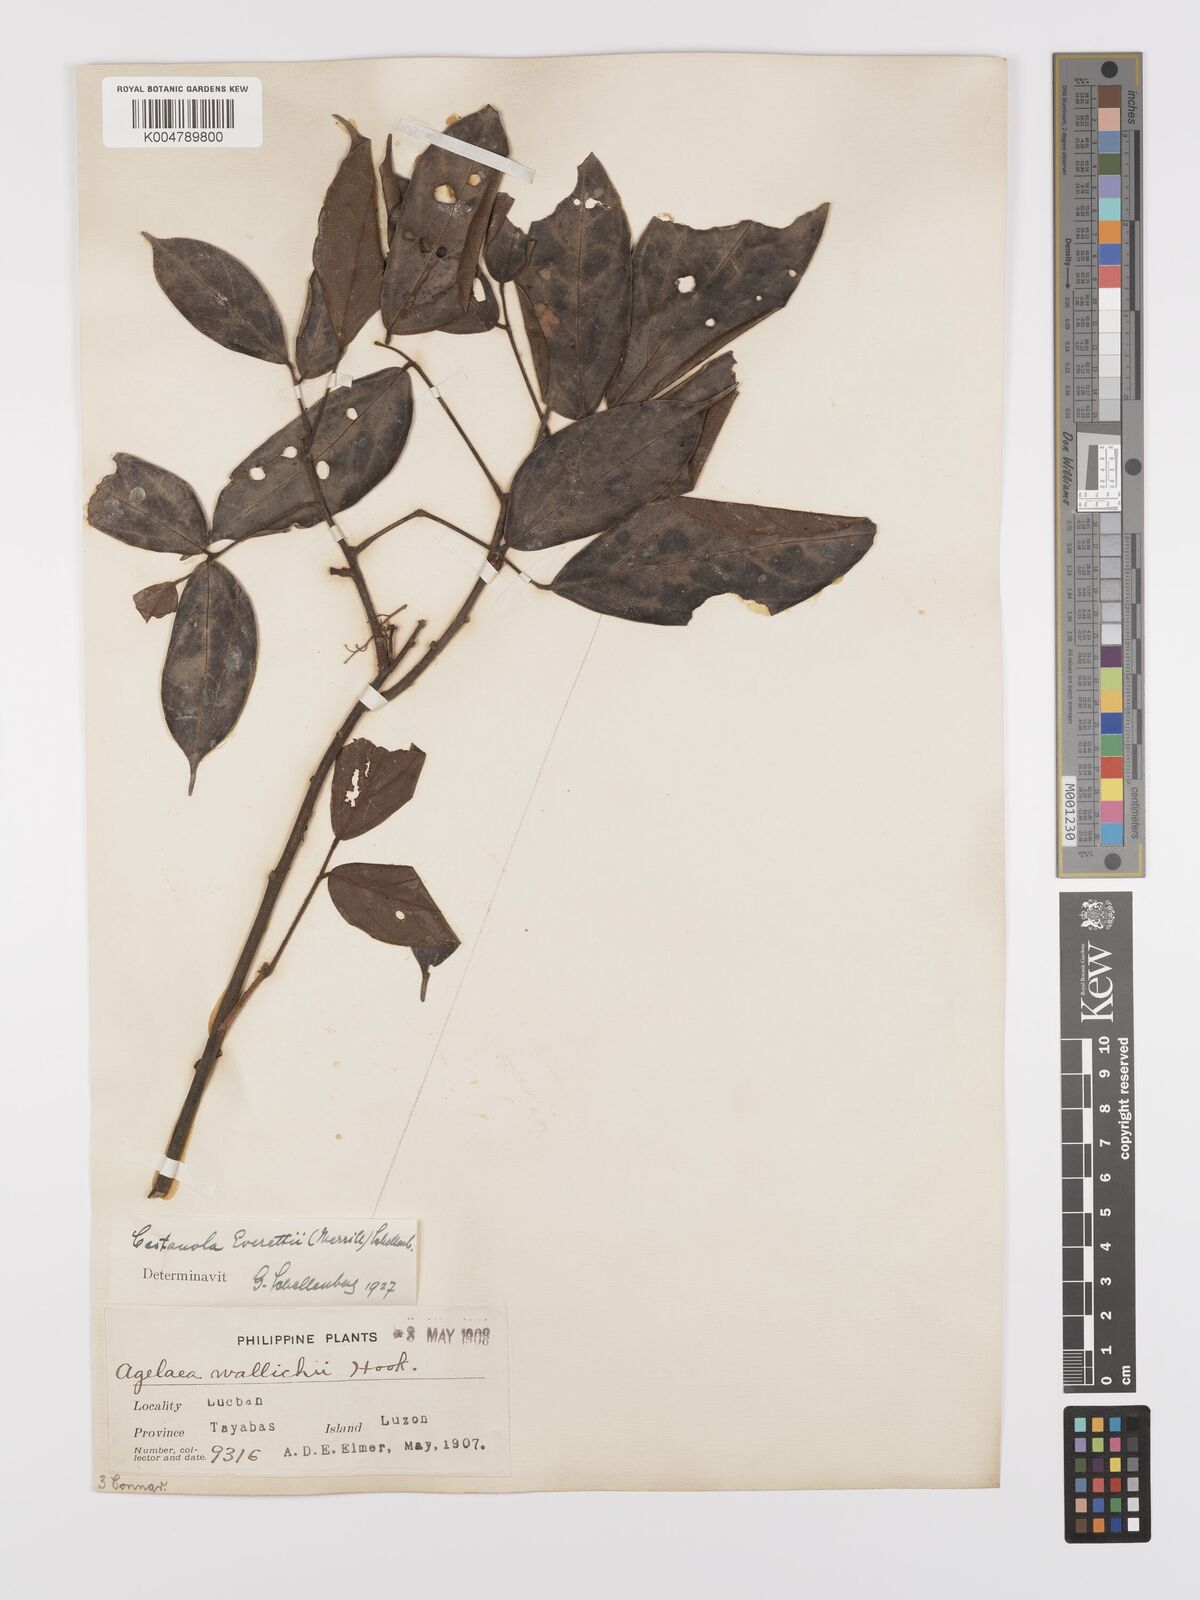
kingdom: Plantae
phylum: Tracheophyta
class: Magnoliopsida
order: Oxalidales
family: Connaraceae
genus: Agelaea
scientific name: Agelaea borneensis
